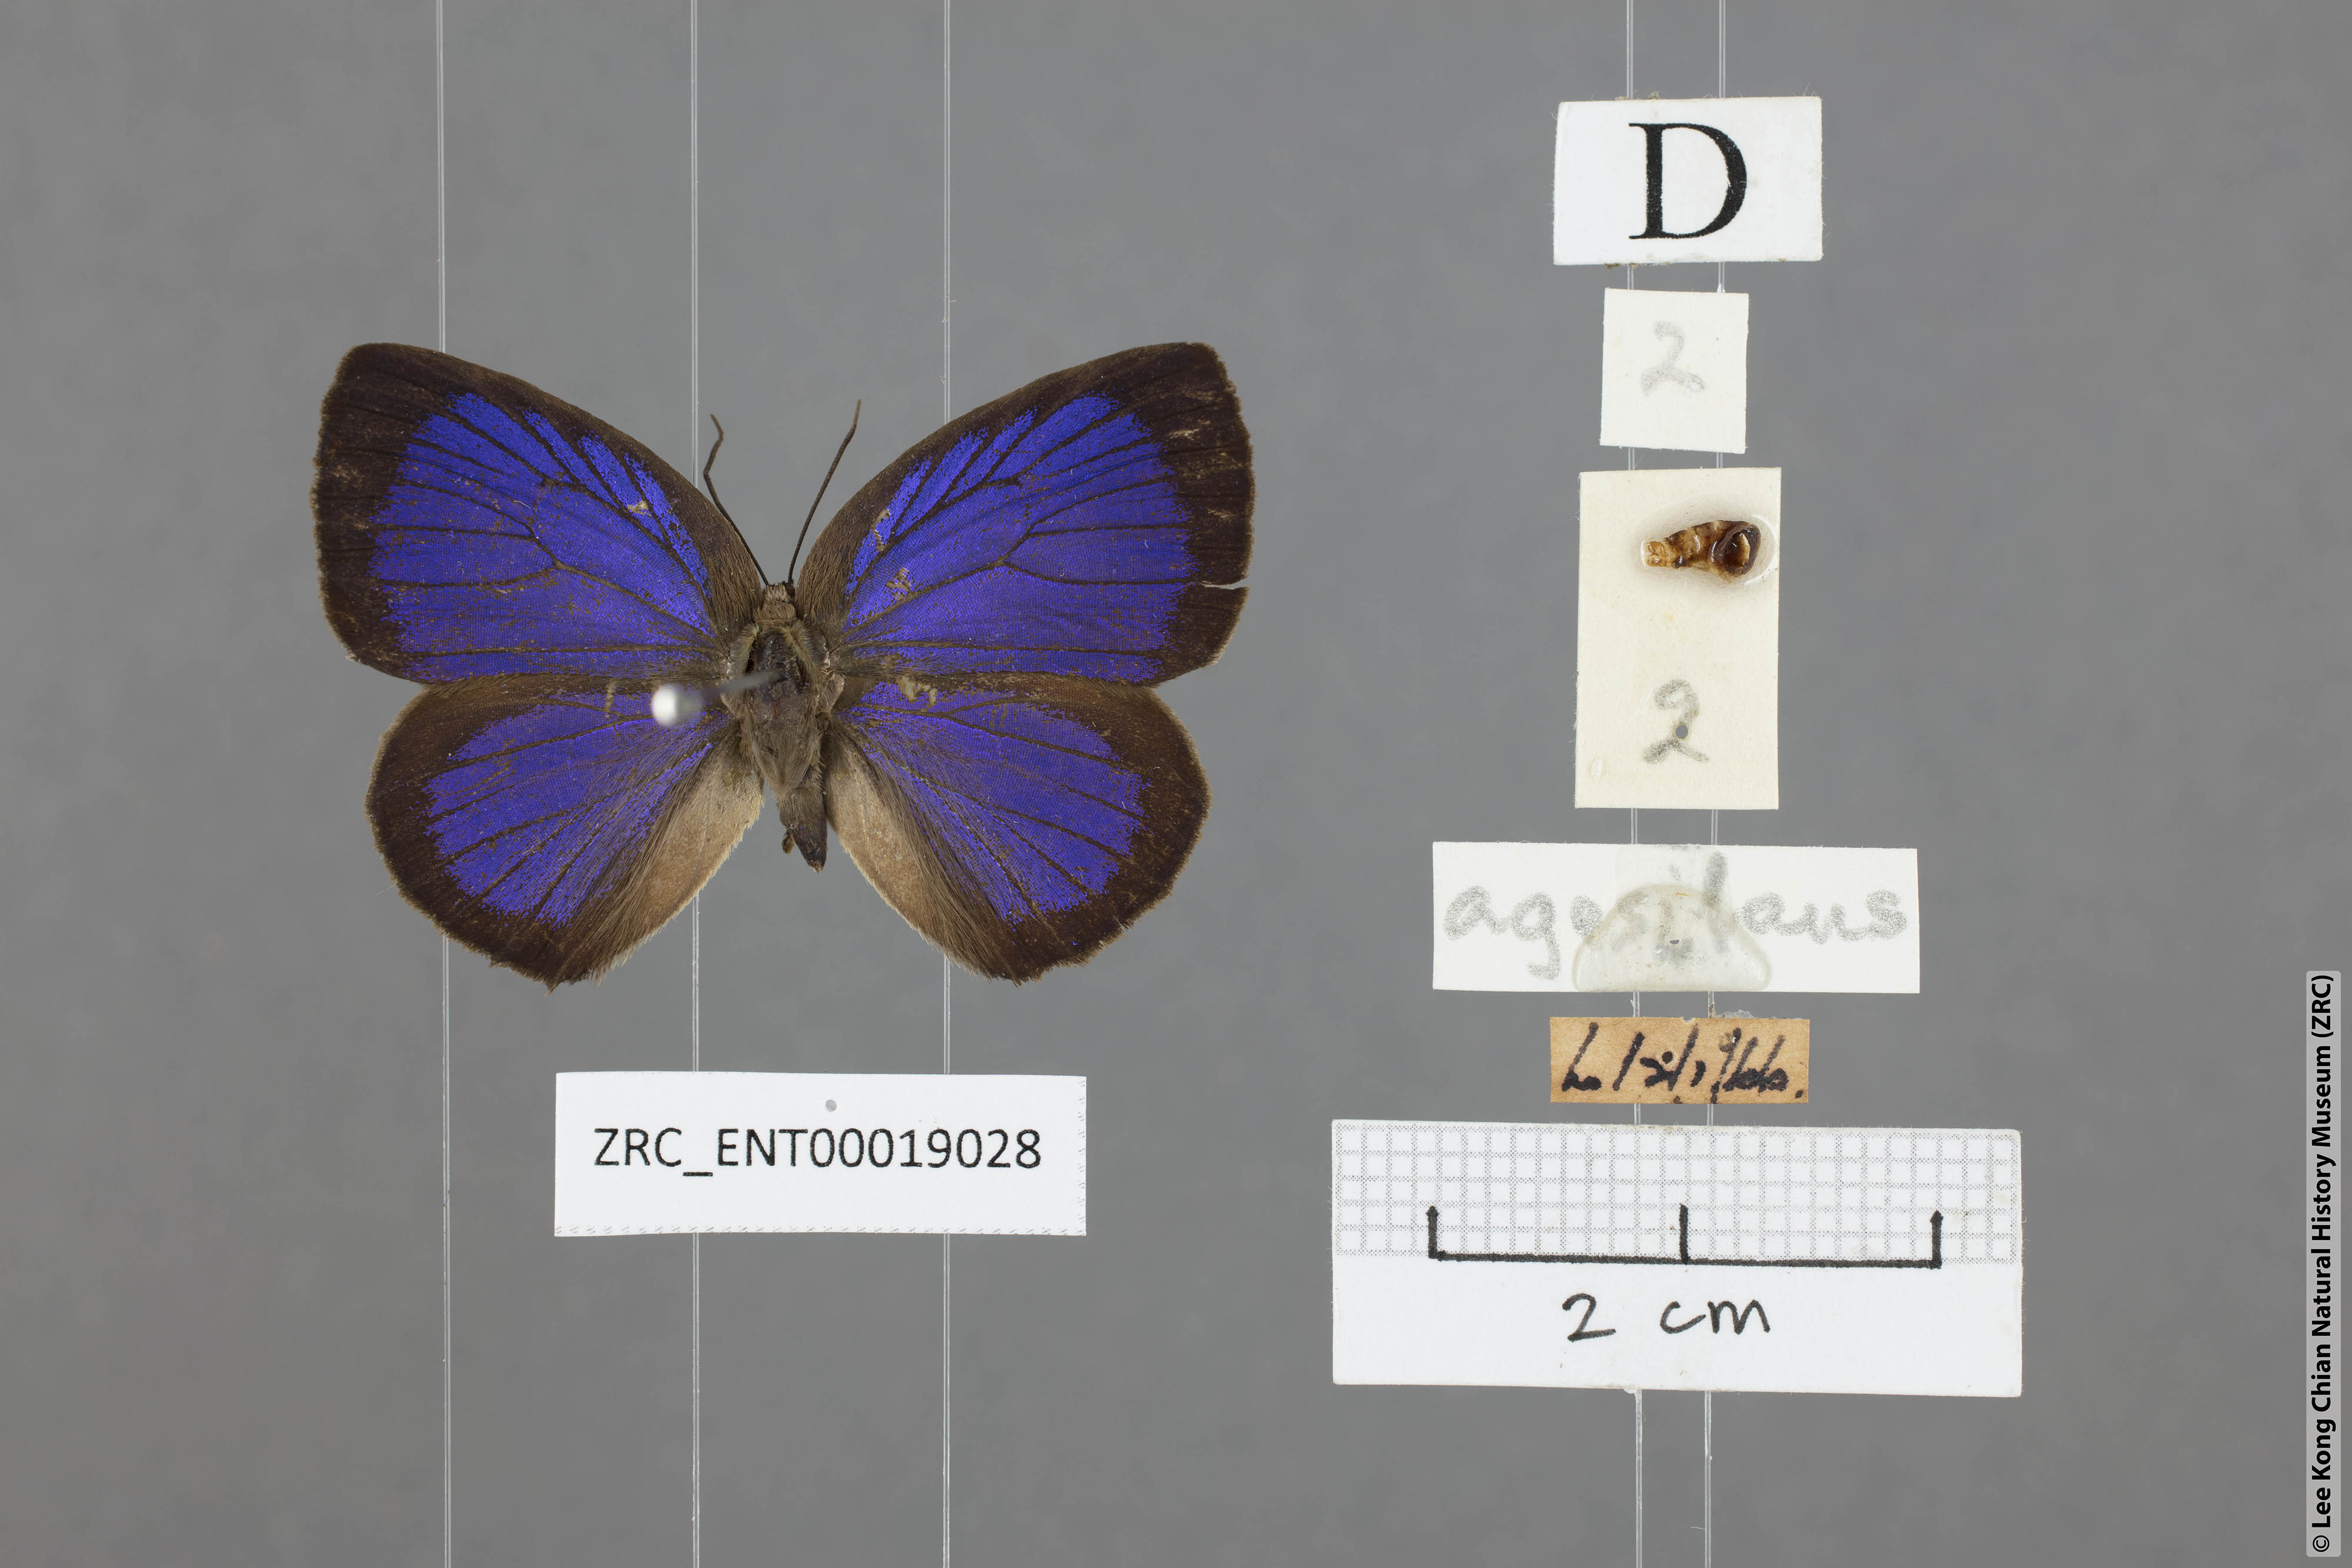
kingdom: Animalia
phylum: Arthropoda
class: Insecta
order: Lepidoptera
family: Lycaenidae
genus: Arhopala
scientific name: Arhopala agesilaus
